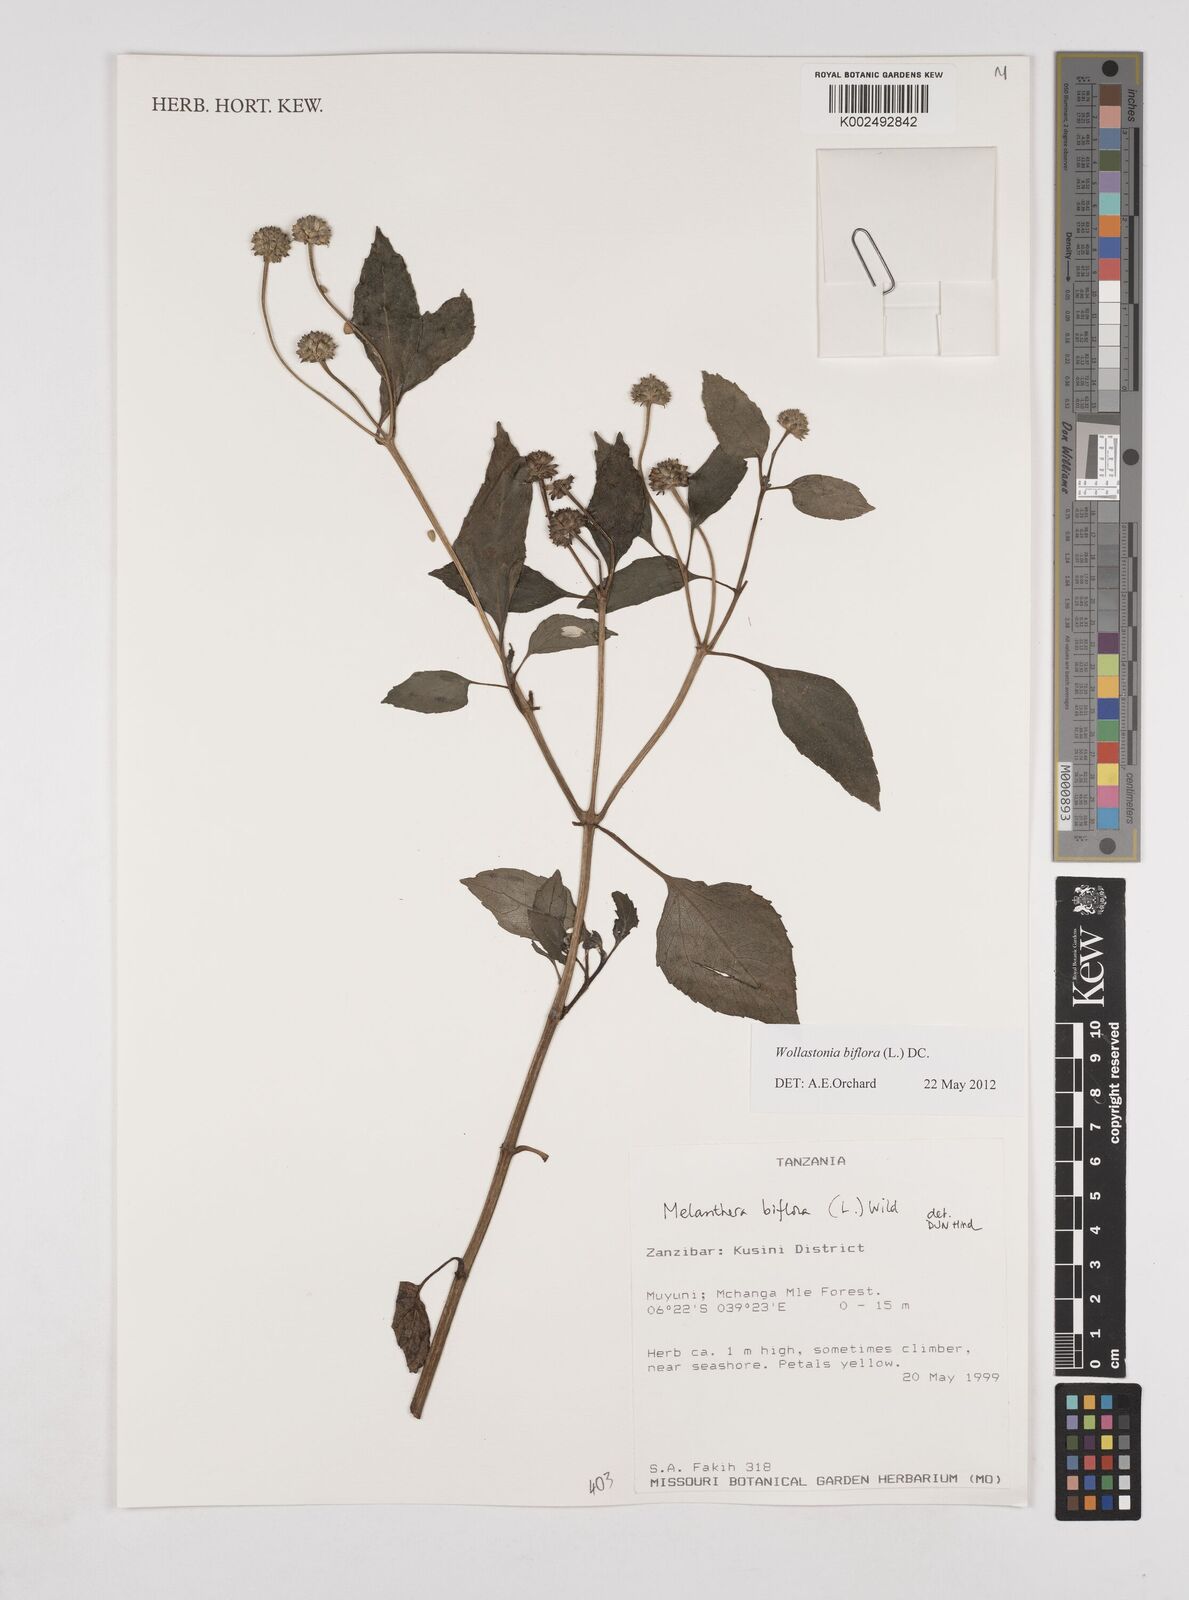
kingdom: Plantae
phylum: Tracheophyta
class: Magnoliopsida
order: Asterales
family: Asteraceae
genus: Wollastonia
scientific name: Wollastonia biflora
